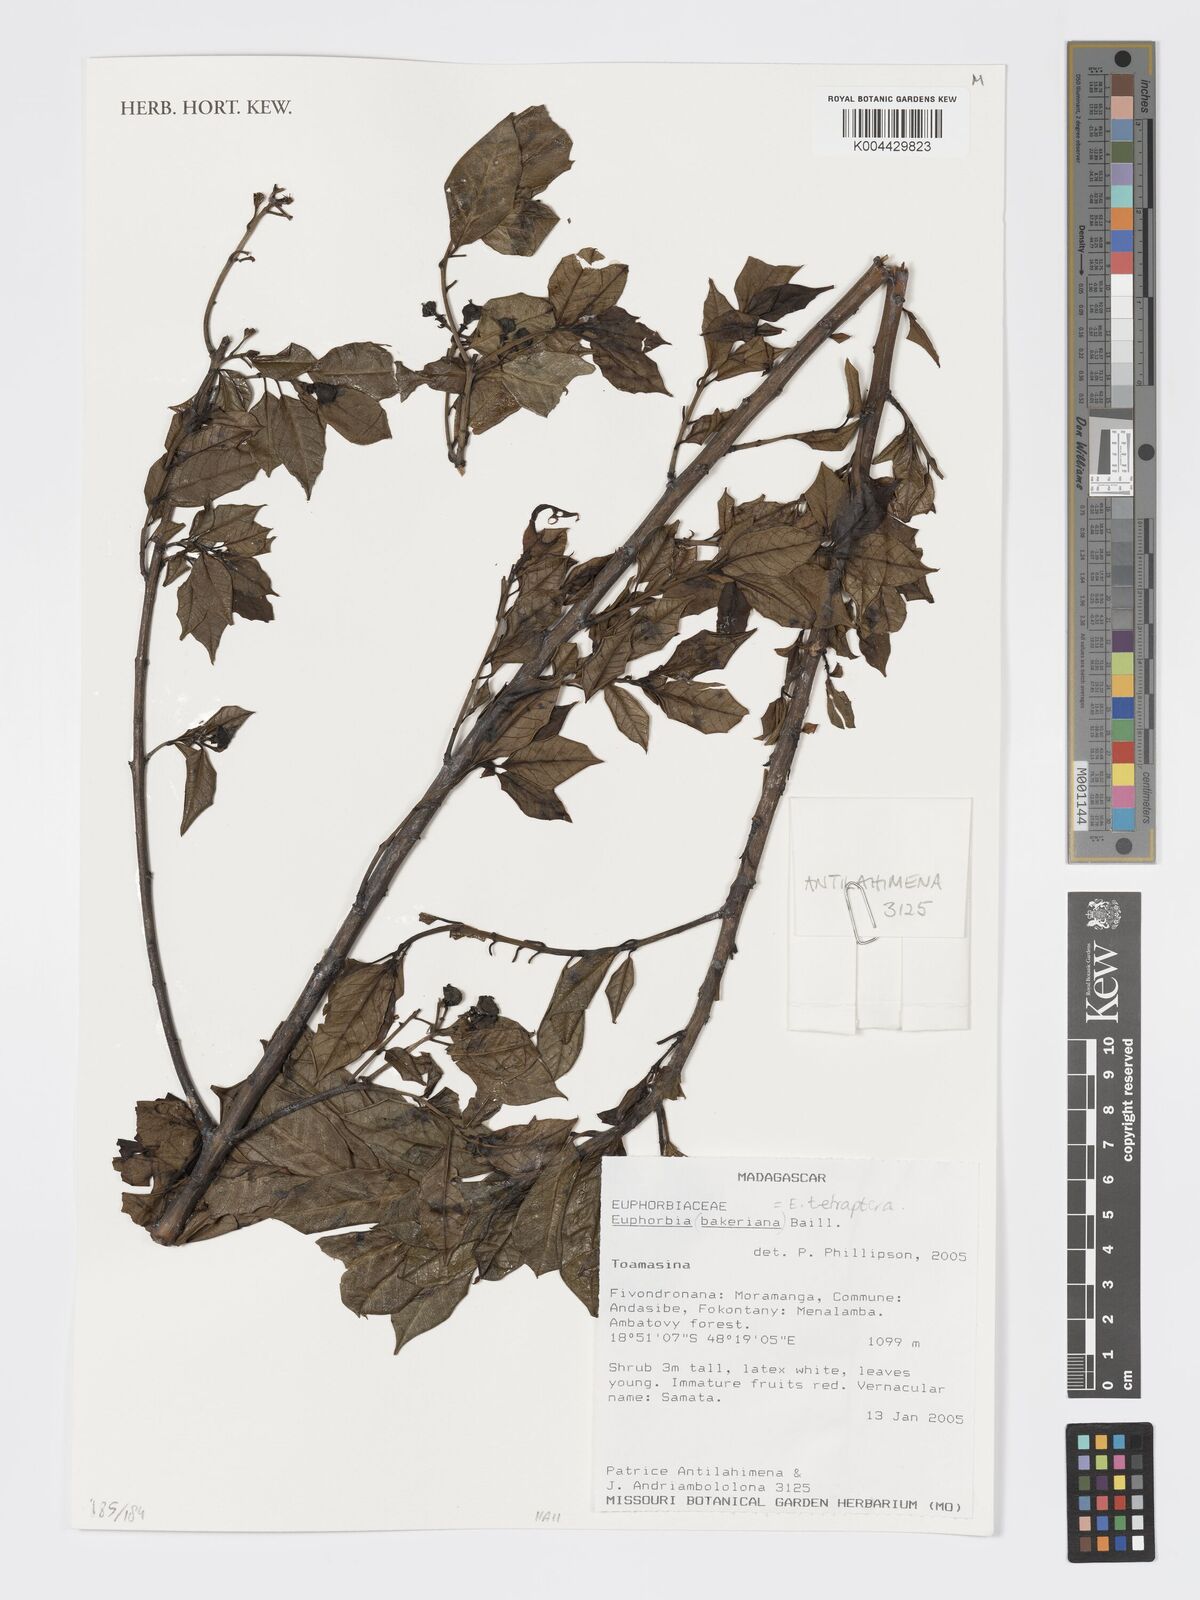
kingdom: Plantae
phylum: Tracheophyta
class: Magnoliopsida
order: Malpighiales
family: Euphorbiaceae
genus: Euphorbia
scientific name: Euphorbia tetraptera
